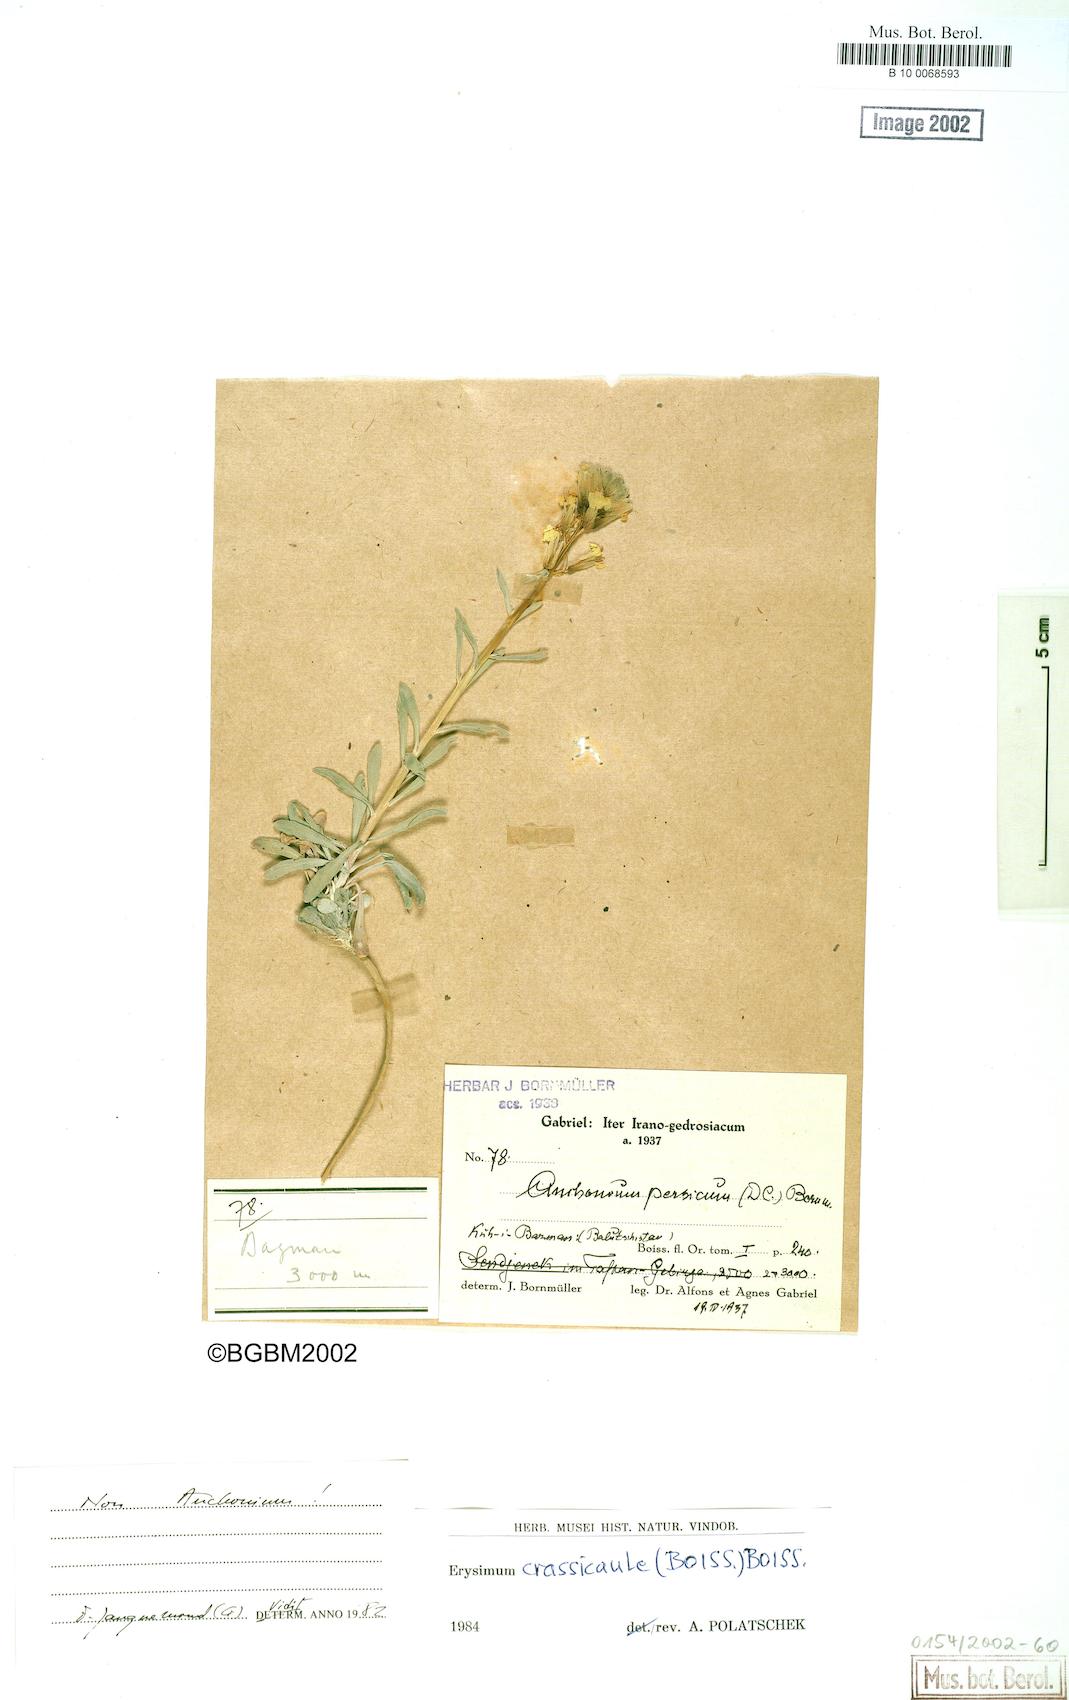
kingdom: Plantae
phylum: Tracheophyta
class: Magnoliopsida
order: Brassicales
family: Brassicaceae
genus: Erysimum
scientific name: Erysimum crassicaule
